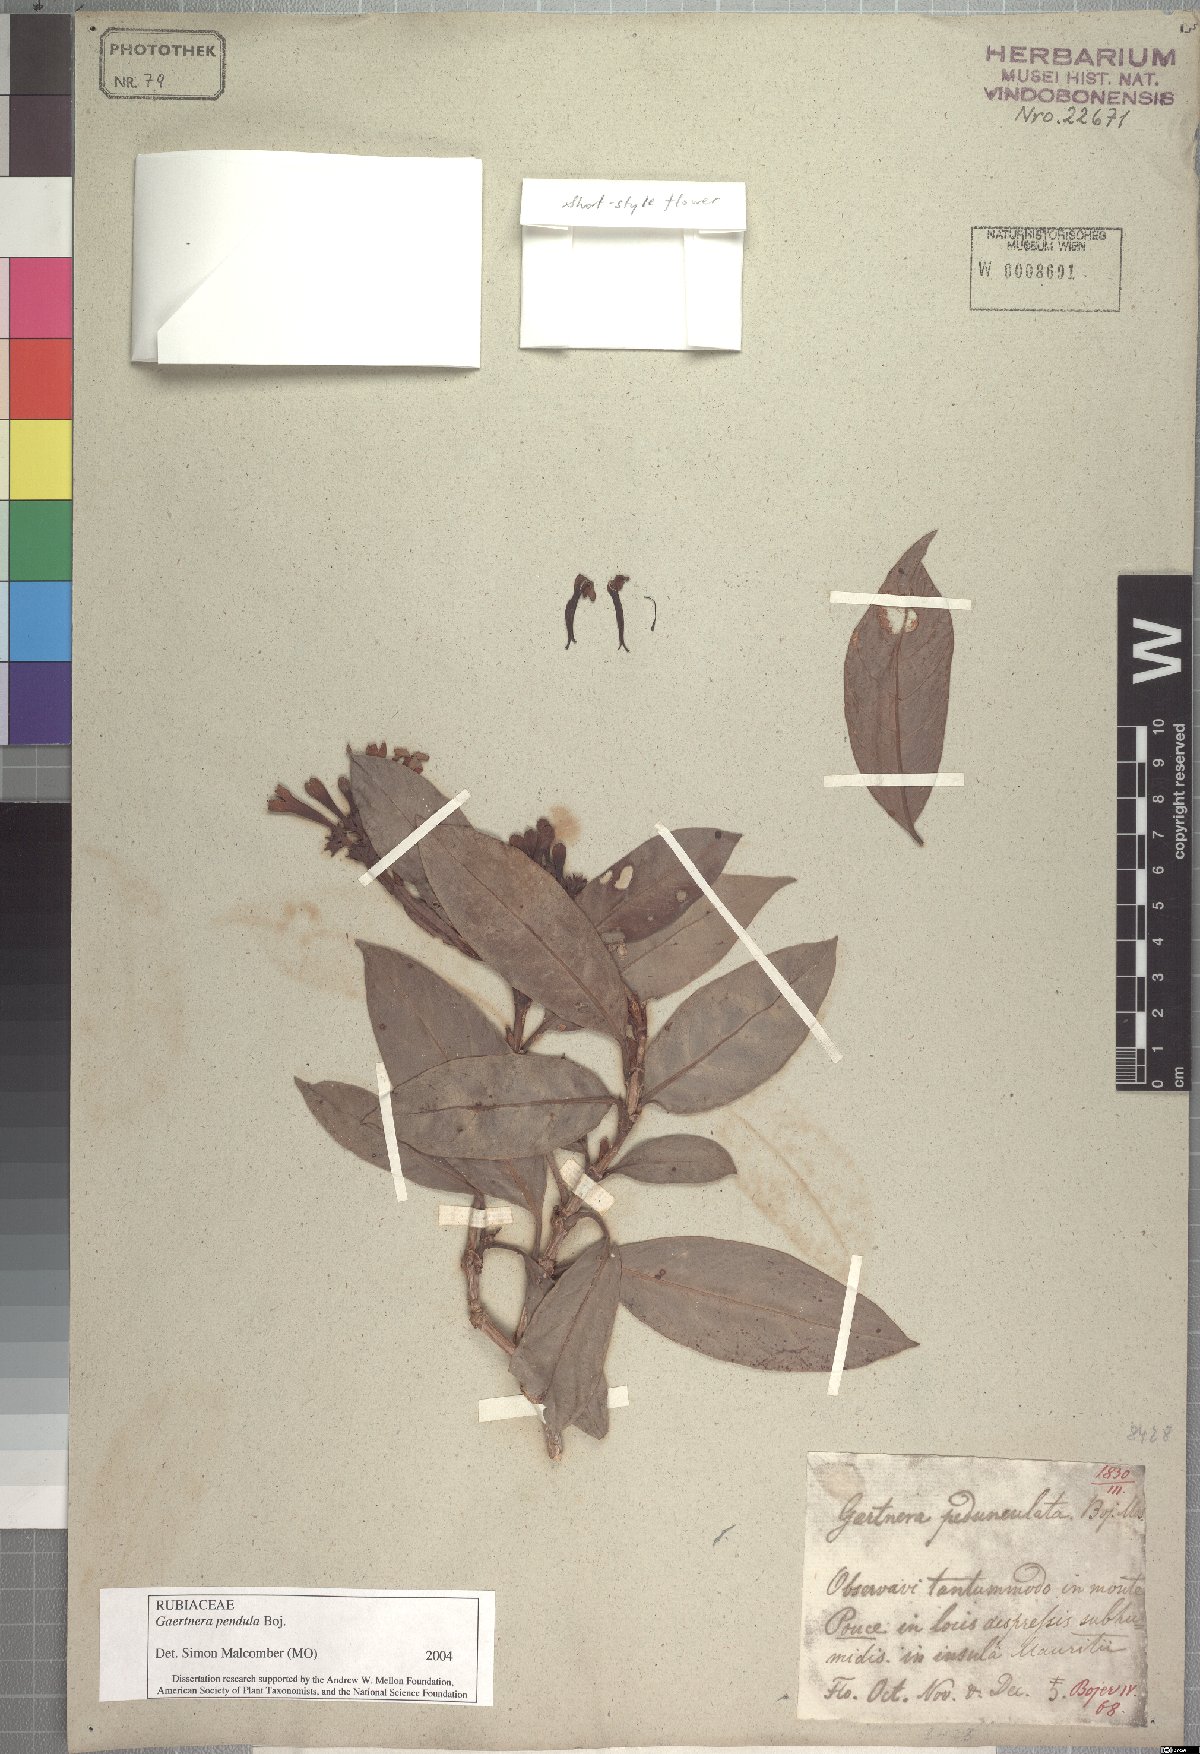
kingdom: Plantae
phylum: Tracheophyta
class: Magnoliopsida
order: Gentianales
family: Rubiaceae
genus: Gaertnera
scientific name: Gaertnera pendula
